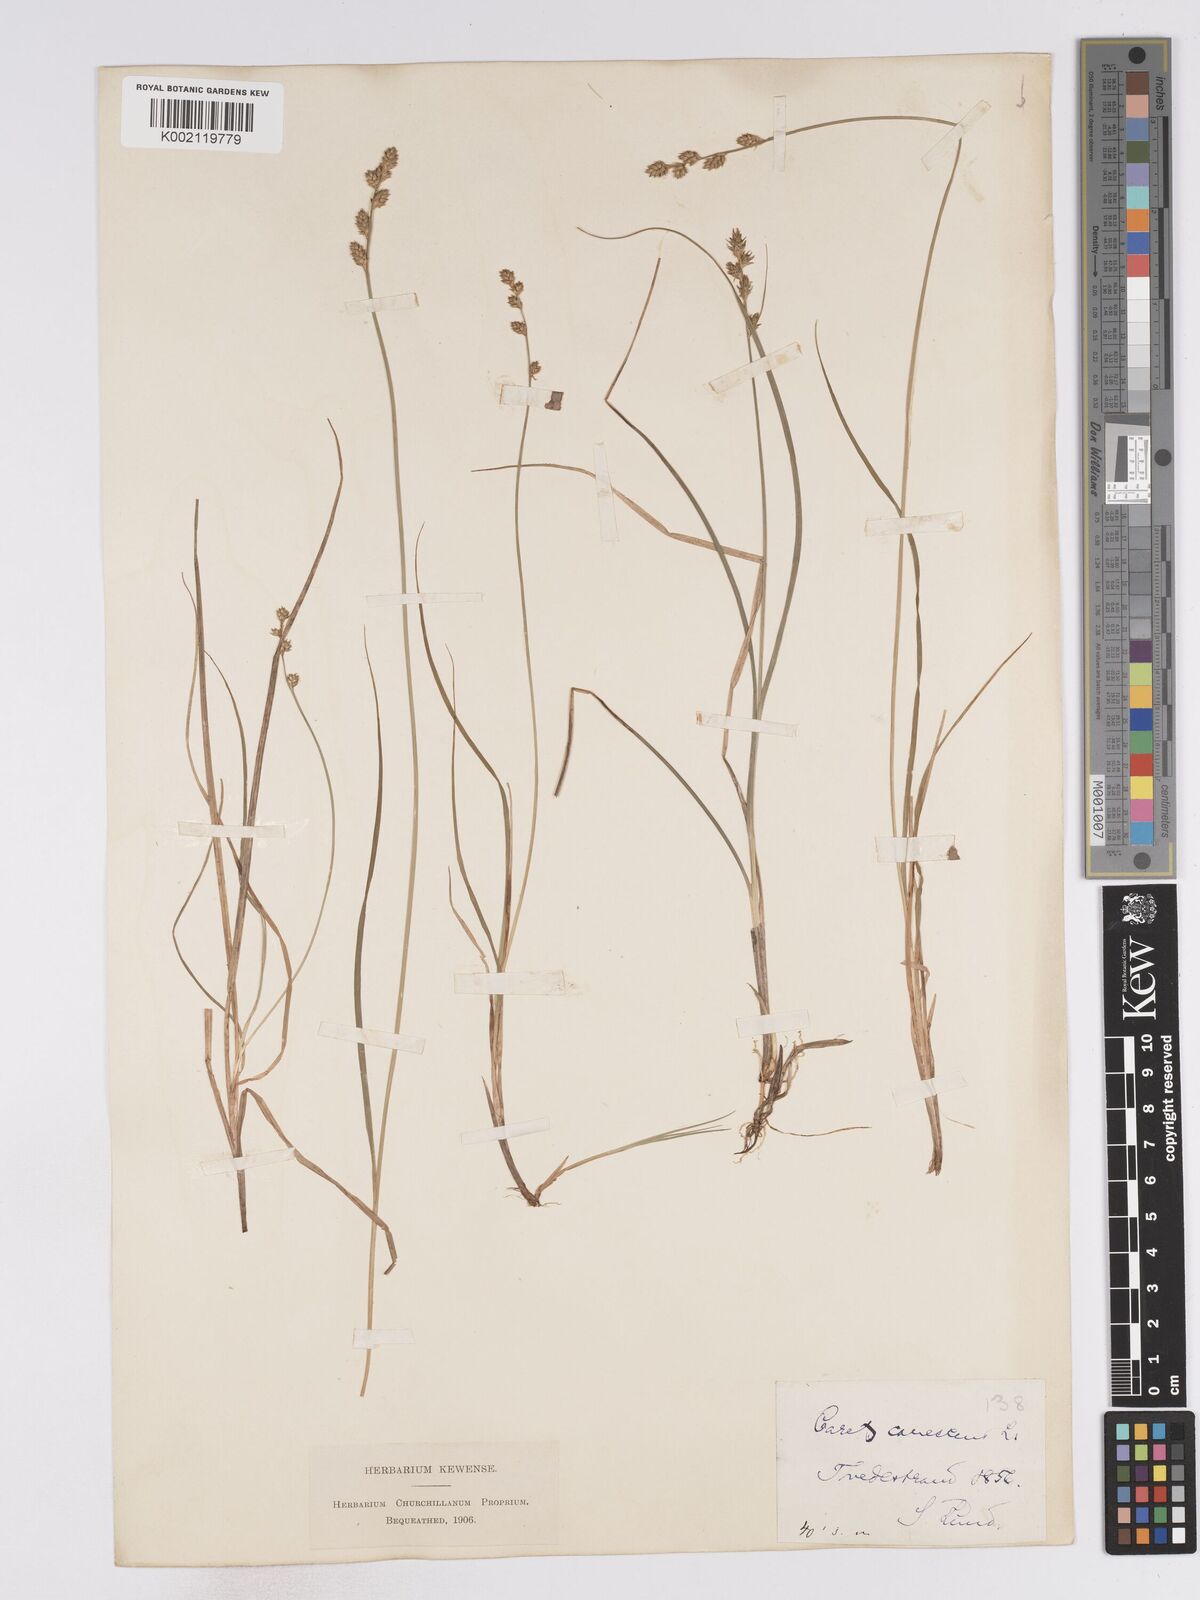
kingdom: Plantae
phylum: Tracheophyta
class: Liliopsida
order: Poales
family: Cyperaceae
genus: Carex
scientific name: Carex curta
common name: White sedge
